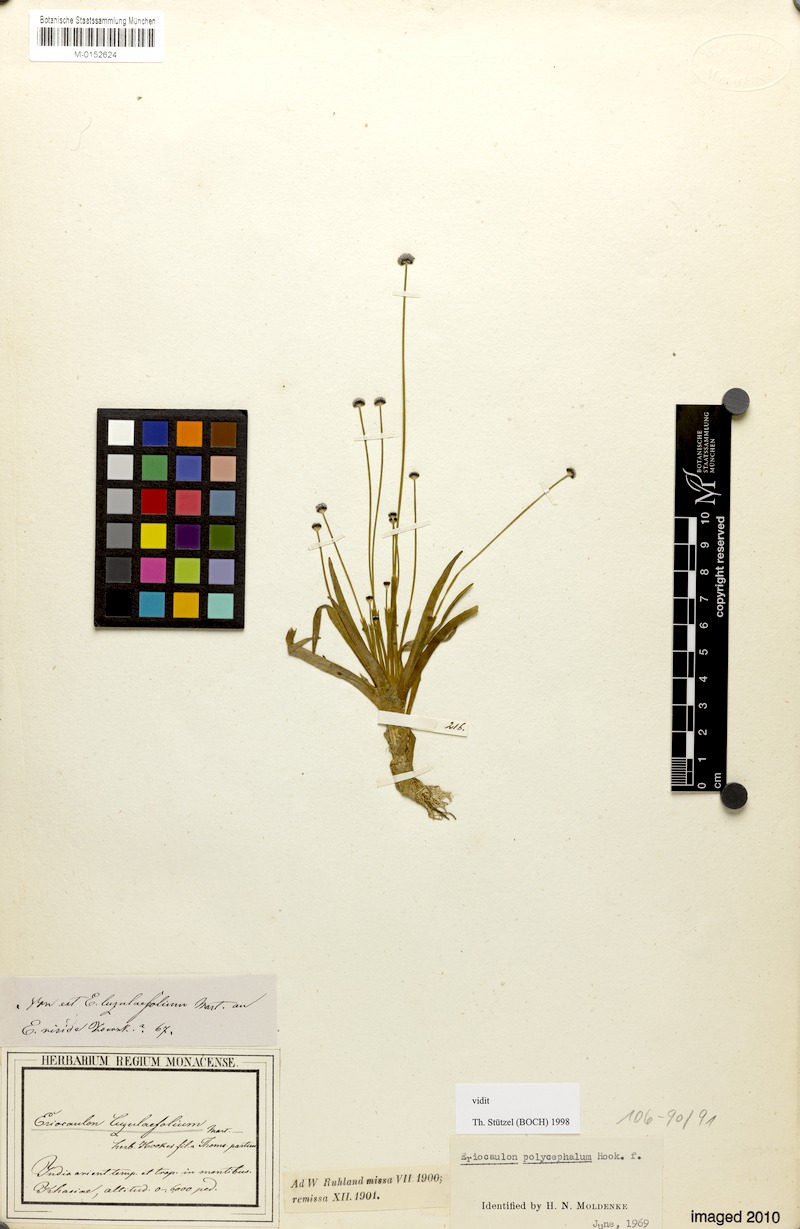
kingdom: Plantae
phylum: Tracheophyta
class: Liliopsida
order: Poales
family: Eriocaulaceae
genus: Eriocaulon
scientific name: Eriocaulon longicuspe
